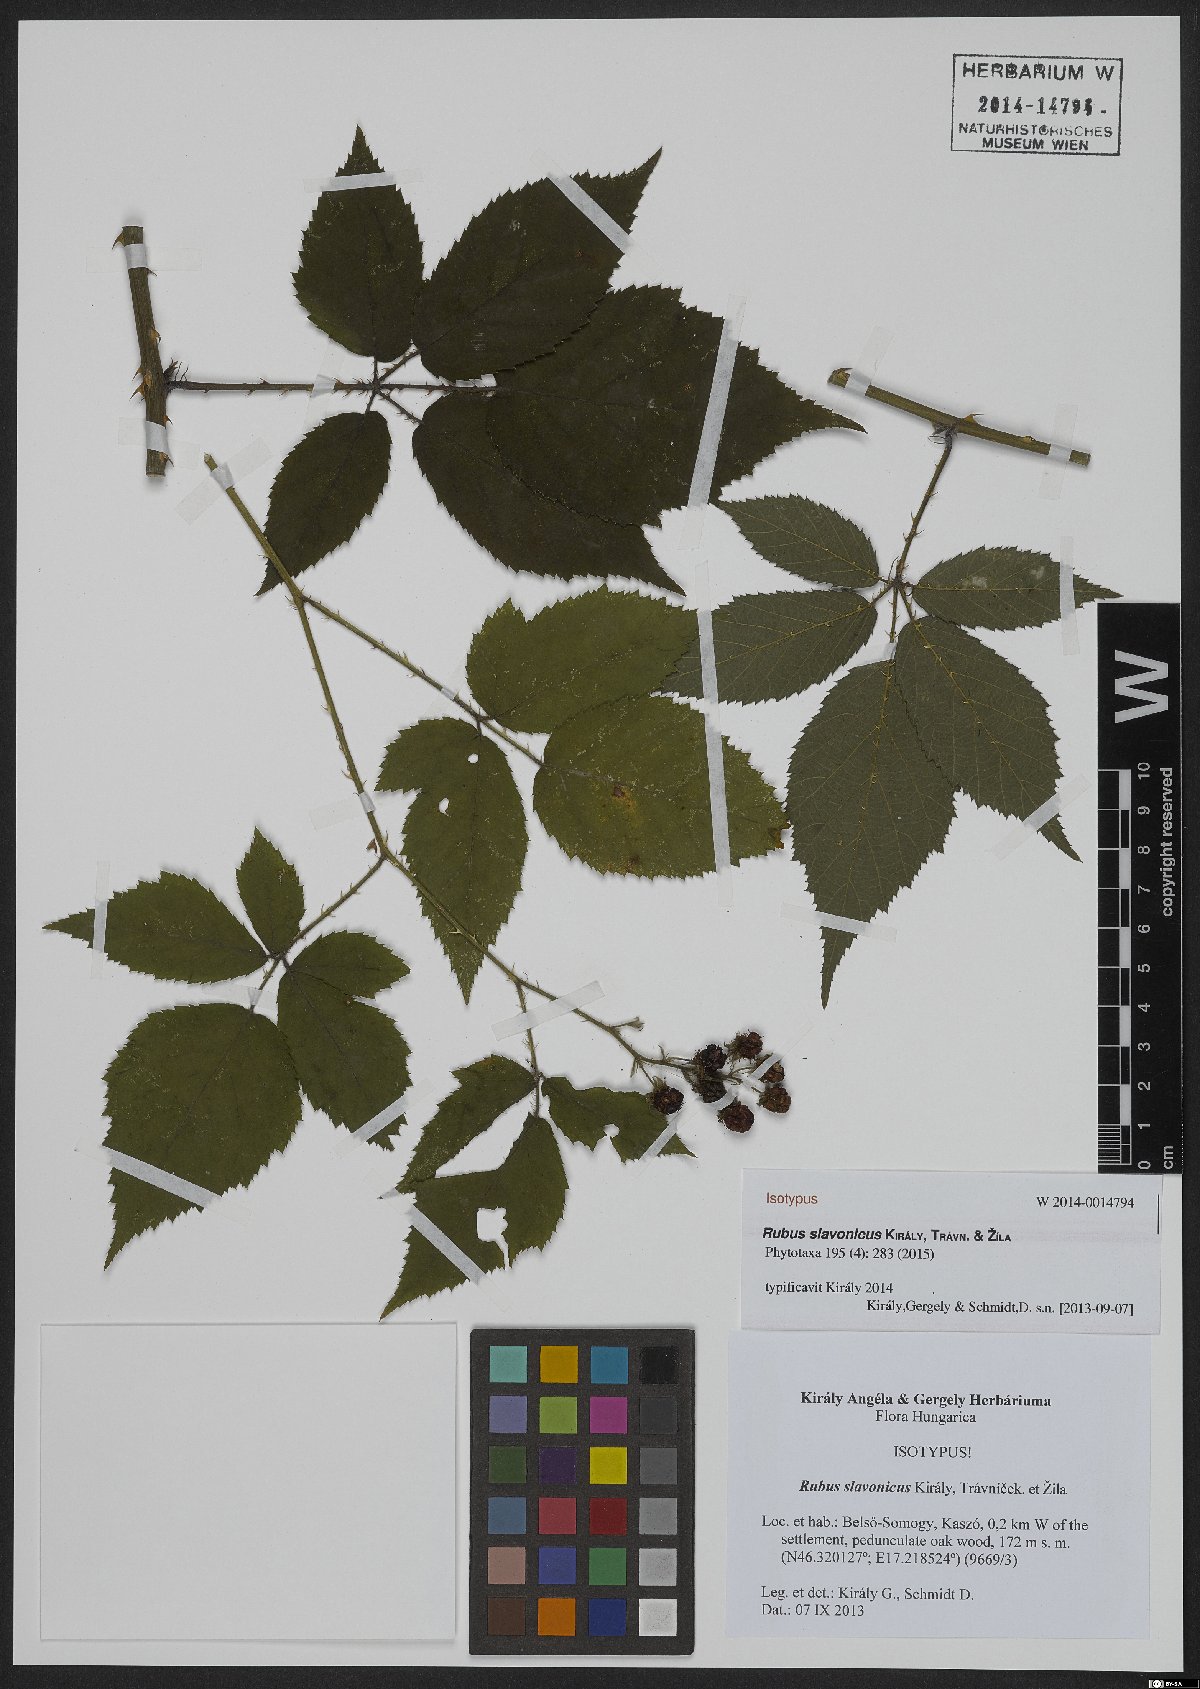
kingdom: Plantae
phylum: Tracheophyta
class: Magnoliopsida
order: Rosales
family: Rosaceae
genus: Rubus
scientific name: Rubus slavonicus
